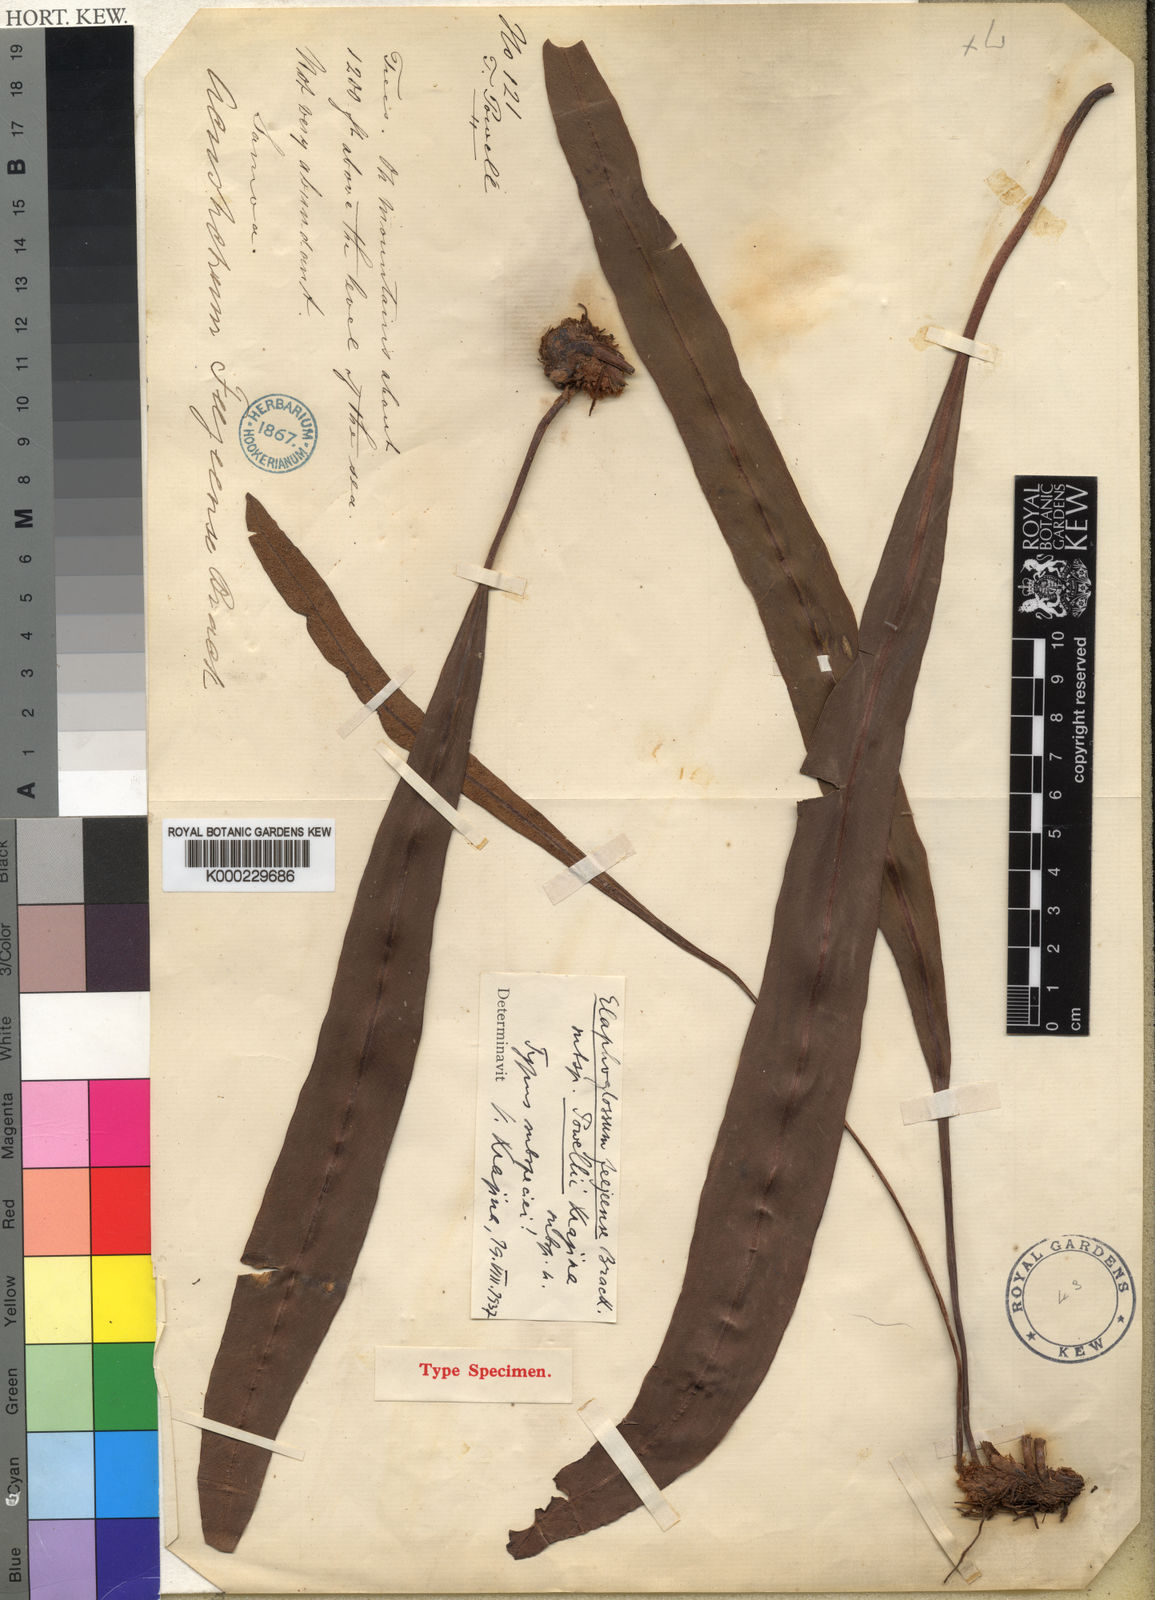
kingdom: Plantae
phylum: Tracheophyta
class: Polypodiopsida
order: Polypodiales
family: Dryopteridaceae
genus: Elaphoglossum
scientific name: Elaphoglossum feejeense
